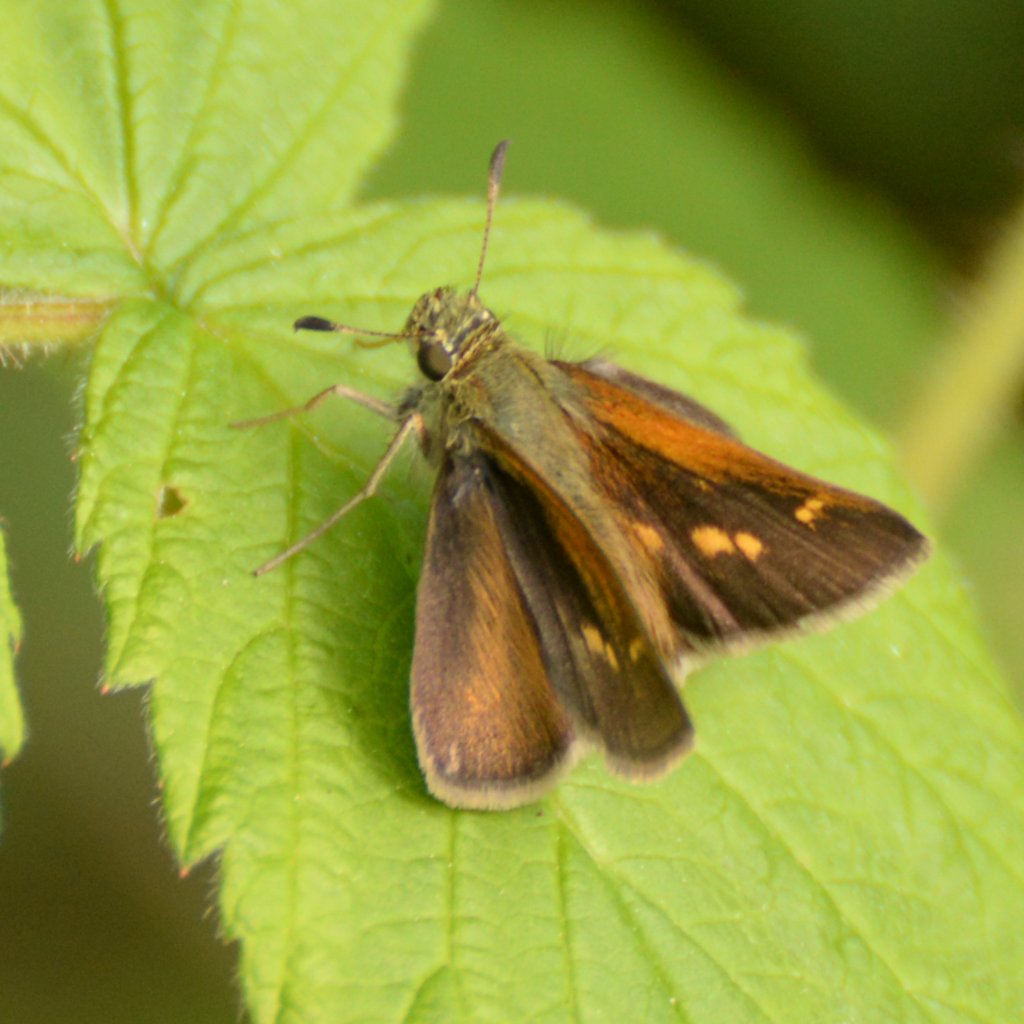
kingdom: Animalia
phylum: Arthropoda
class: Insecta
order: Lepidoptera
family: Hesperiidae
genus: Polites
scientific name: Polites themistocles
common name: Tawny-edged Skipper
